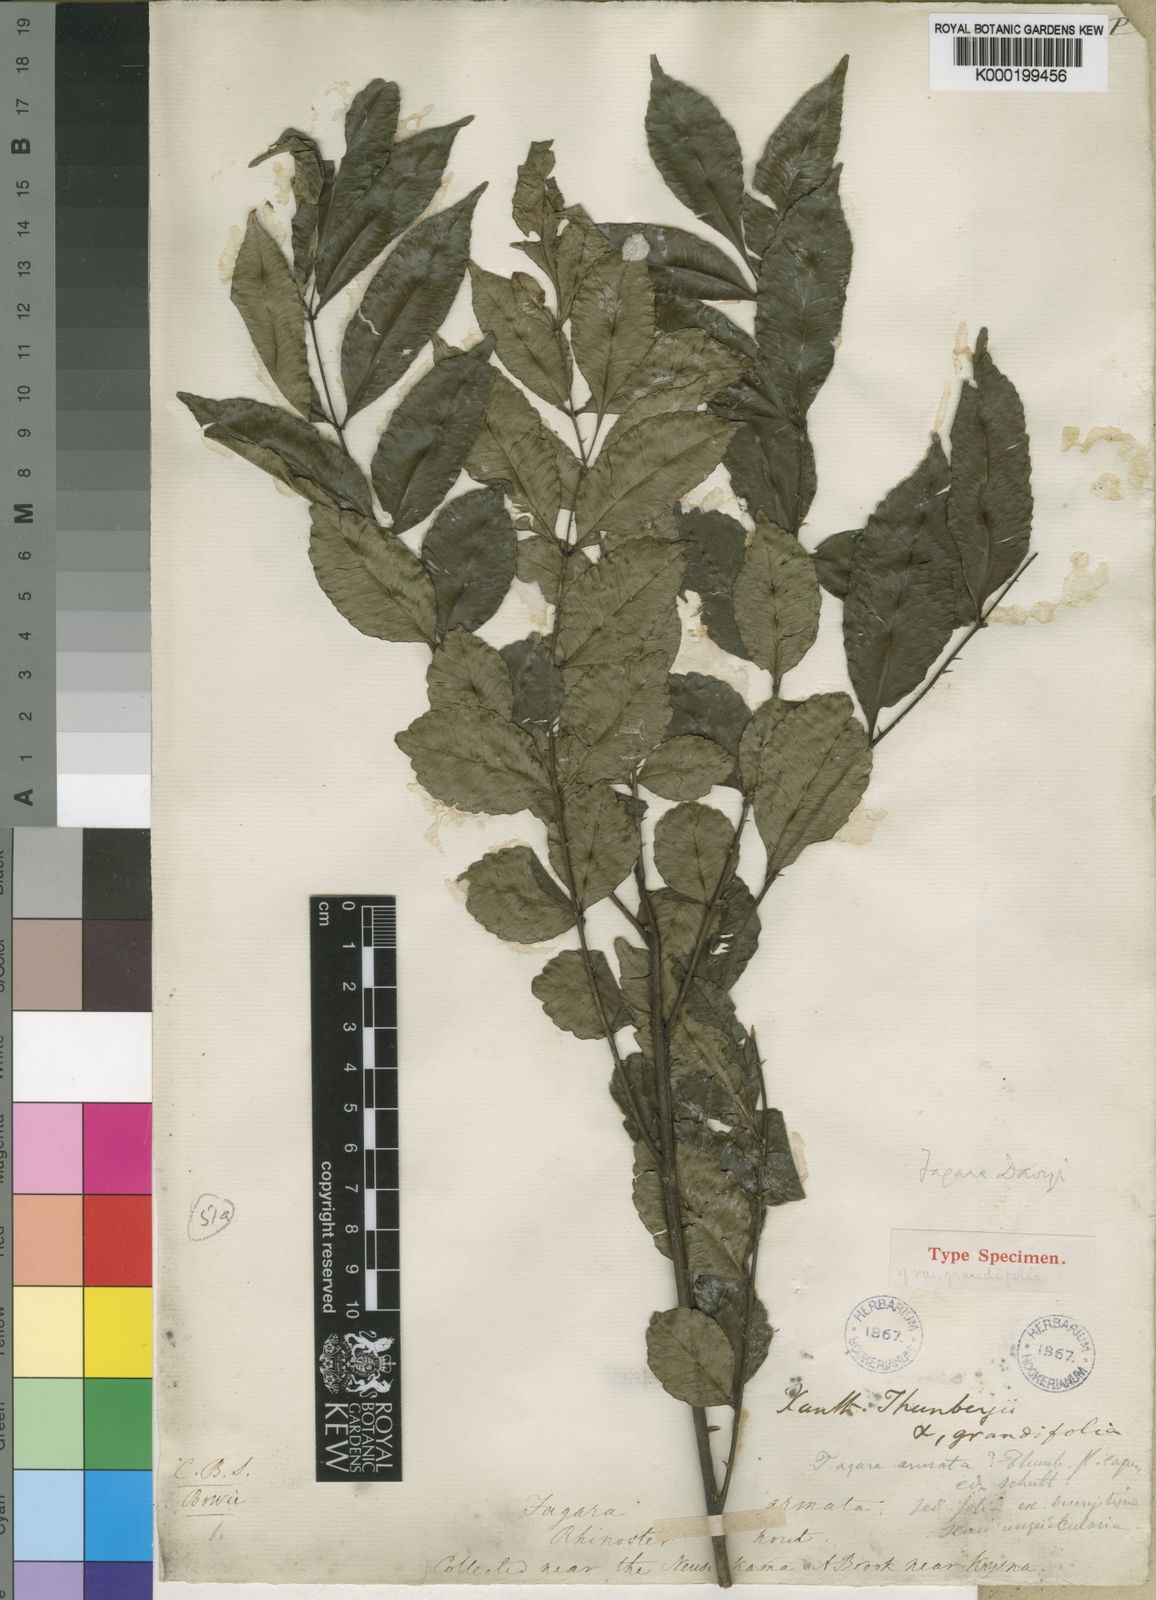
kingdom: Plantae
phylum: Tracheophyta
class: Magnoliopsida
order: Sapindales
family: Rutaceae
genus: Zanthoxylum
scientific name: Zanthoxylum davyi
